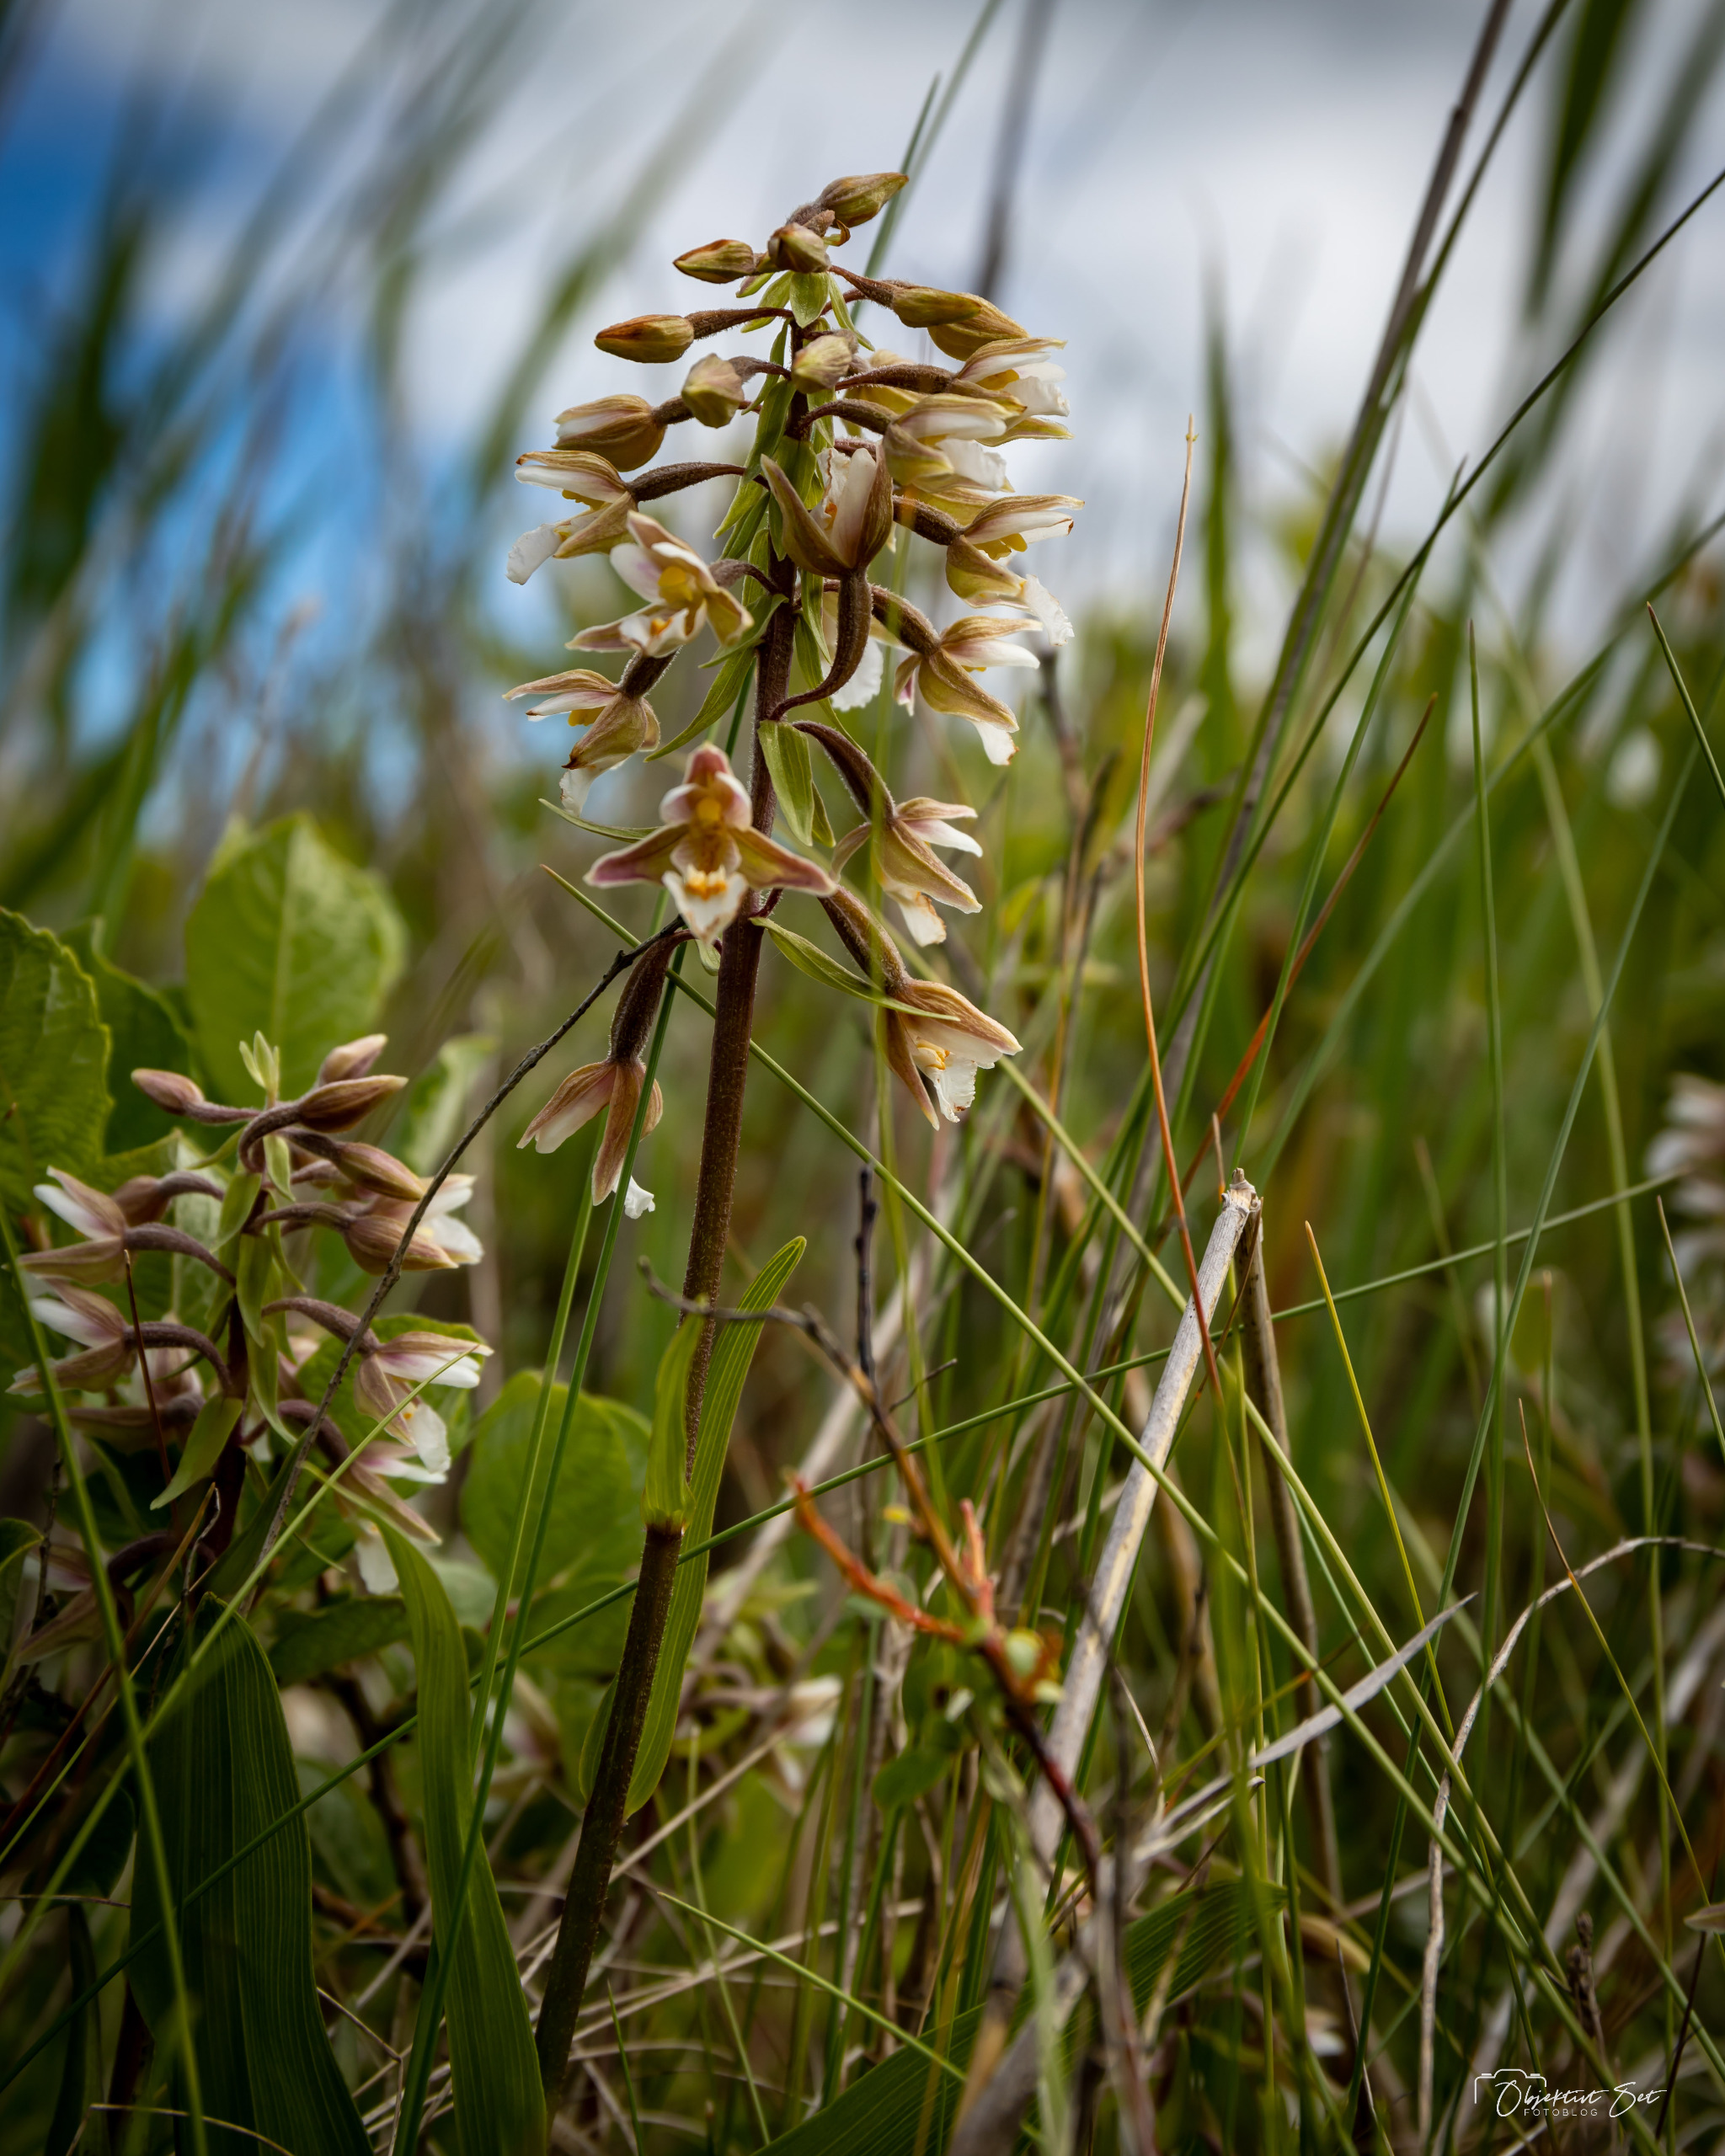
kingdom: Plantae
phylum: Tracheophyta
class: Liliopsida
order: Asparagales
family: Orchidaceae
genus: Epipactis
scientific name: Epipactis palustris
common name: Sump-hullæbe
